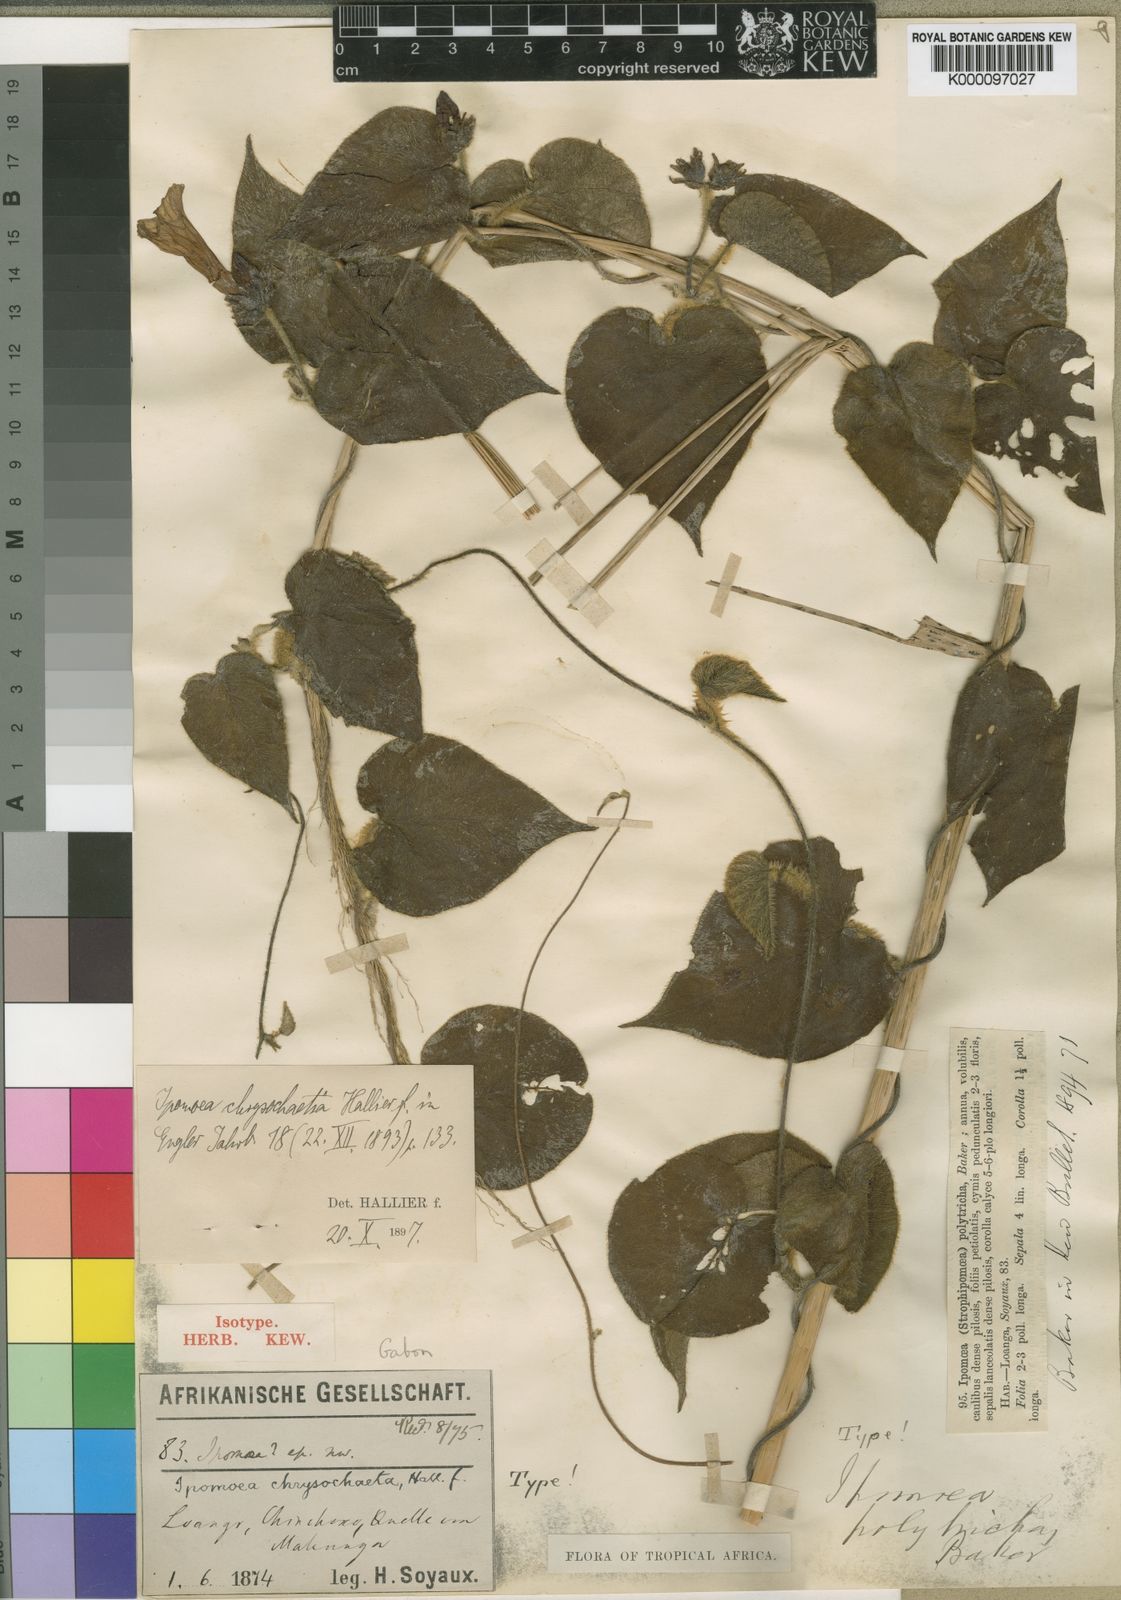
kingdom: Plantae
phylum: Tracheophyta
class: Magnoliopsida
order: Solanales
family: Convolvulaceae
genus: Ipomoea
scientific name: Ipomoea chrysochaetia
